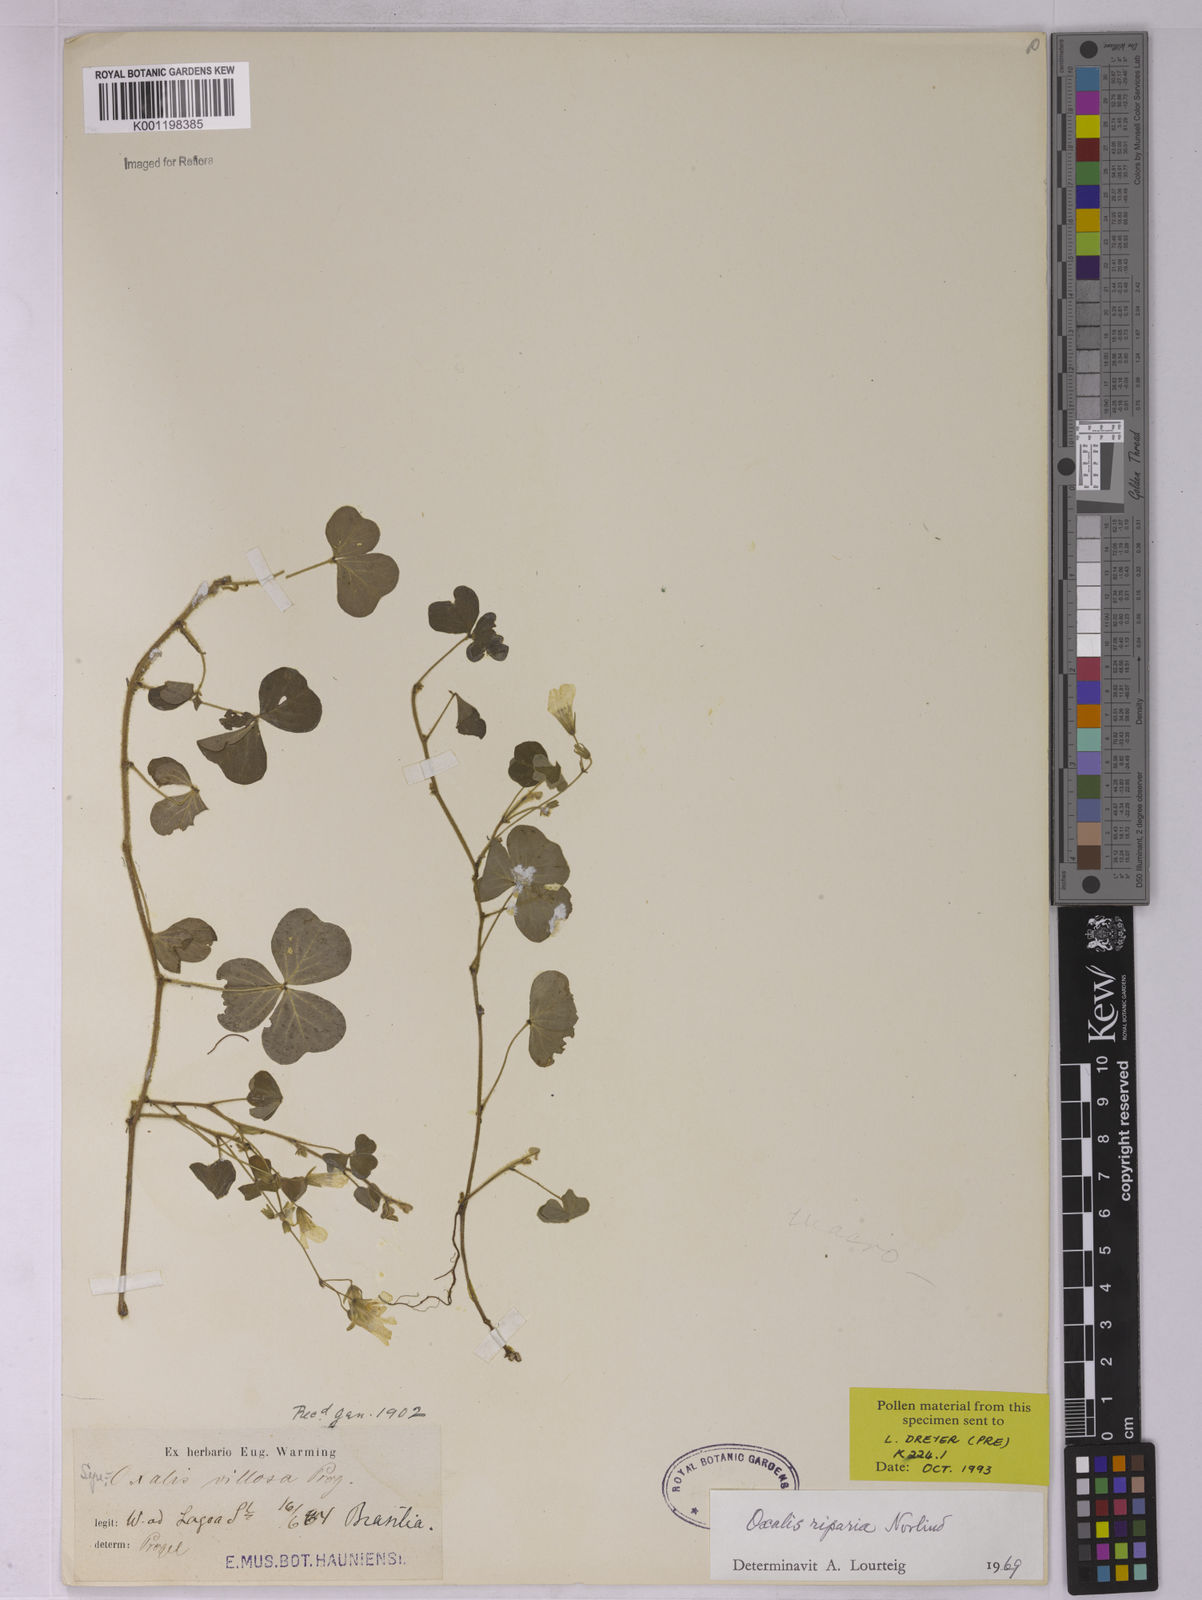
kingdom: Plantae
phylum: Tracheophyta
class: Magnoliopsida
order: Oxalidales
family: Oxalidaceae
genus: Oxalis
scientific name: Oxalis corniculata
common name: Procumbent yellow-sorrel
